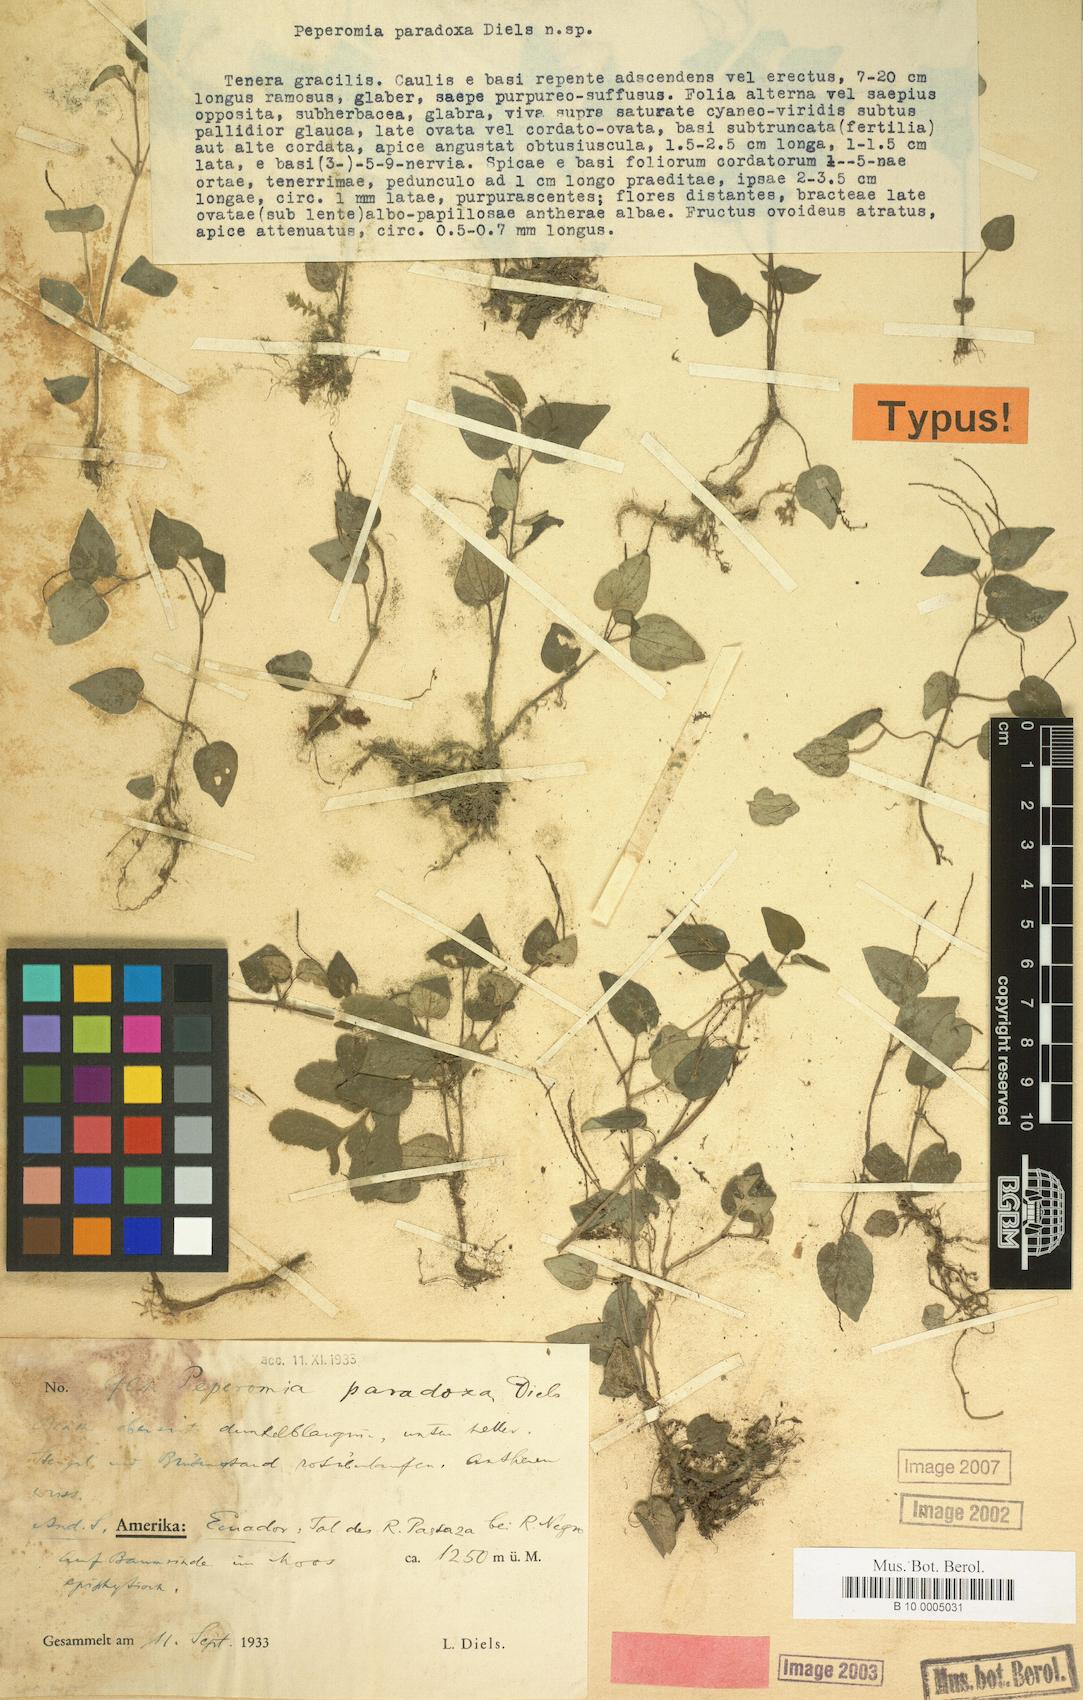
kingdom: Plantae
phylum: Tracheophyta
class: Magnoliopsida
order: Piperales
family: Piperaceae
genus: Peperomia
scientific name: Peperomia paradoxa
